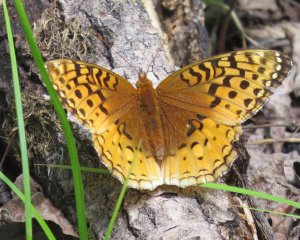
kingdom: Animalia
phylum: Arthropoda
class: Insecta
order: Lepidoptera
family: Nymphalidae
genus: Speyeria
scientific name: Speyeria cybele
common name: Great Spangled Fritillary
